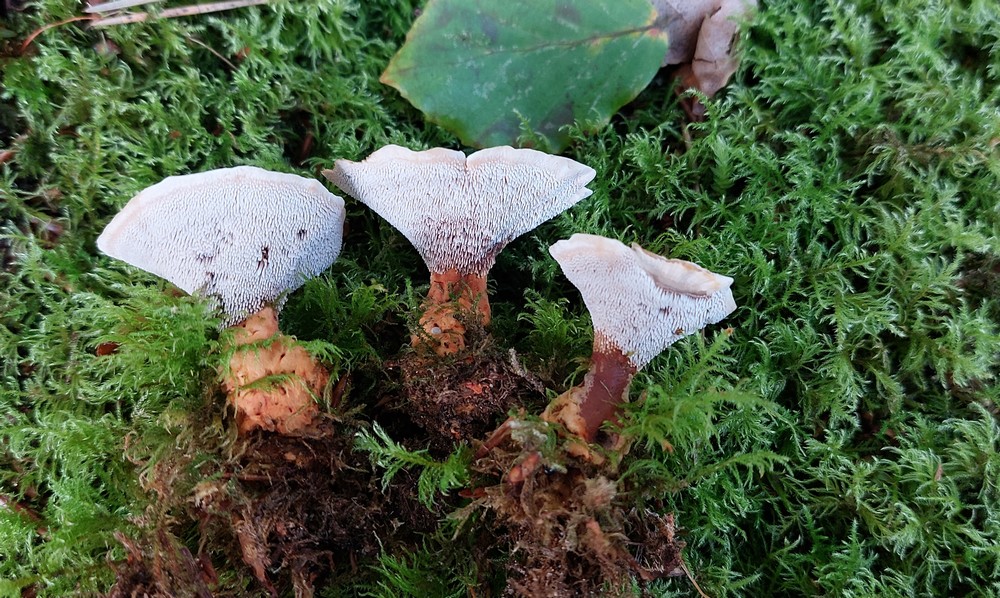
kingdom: Fungi
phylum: Basidiomycota
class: Agaricomycetes
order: Thelephorales
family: Bankeraceae
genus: Hydnellum
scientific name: Hydnellum aurantiacum
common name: orange korkpigsvamp
